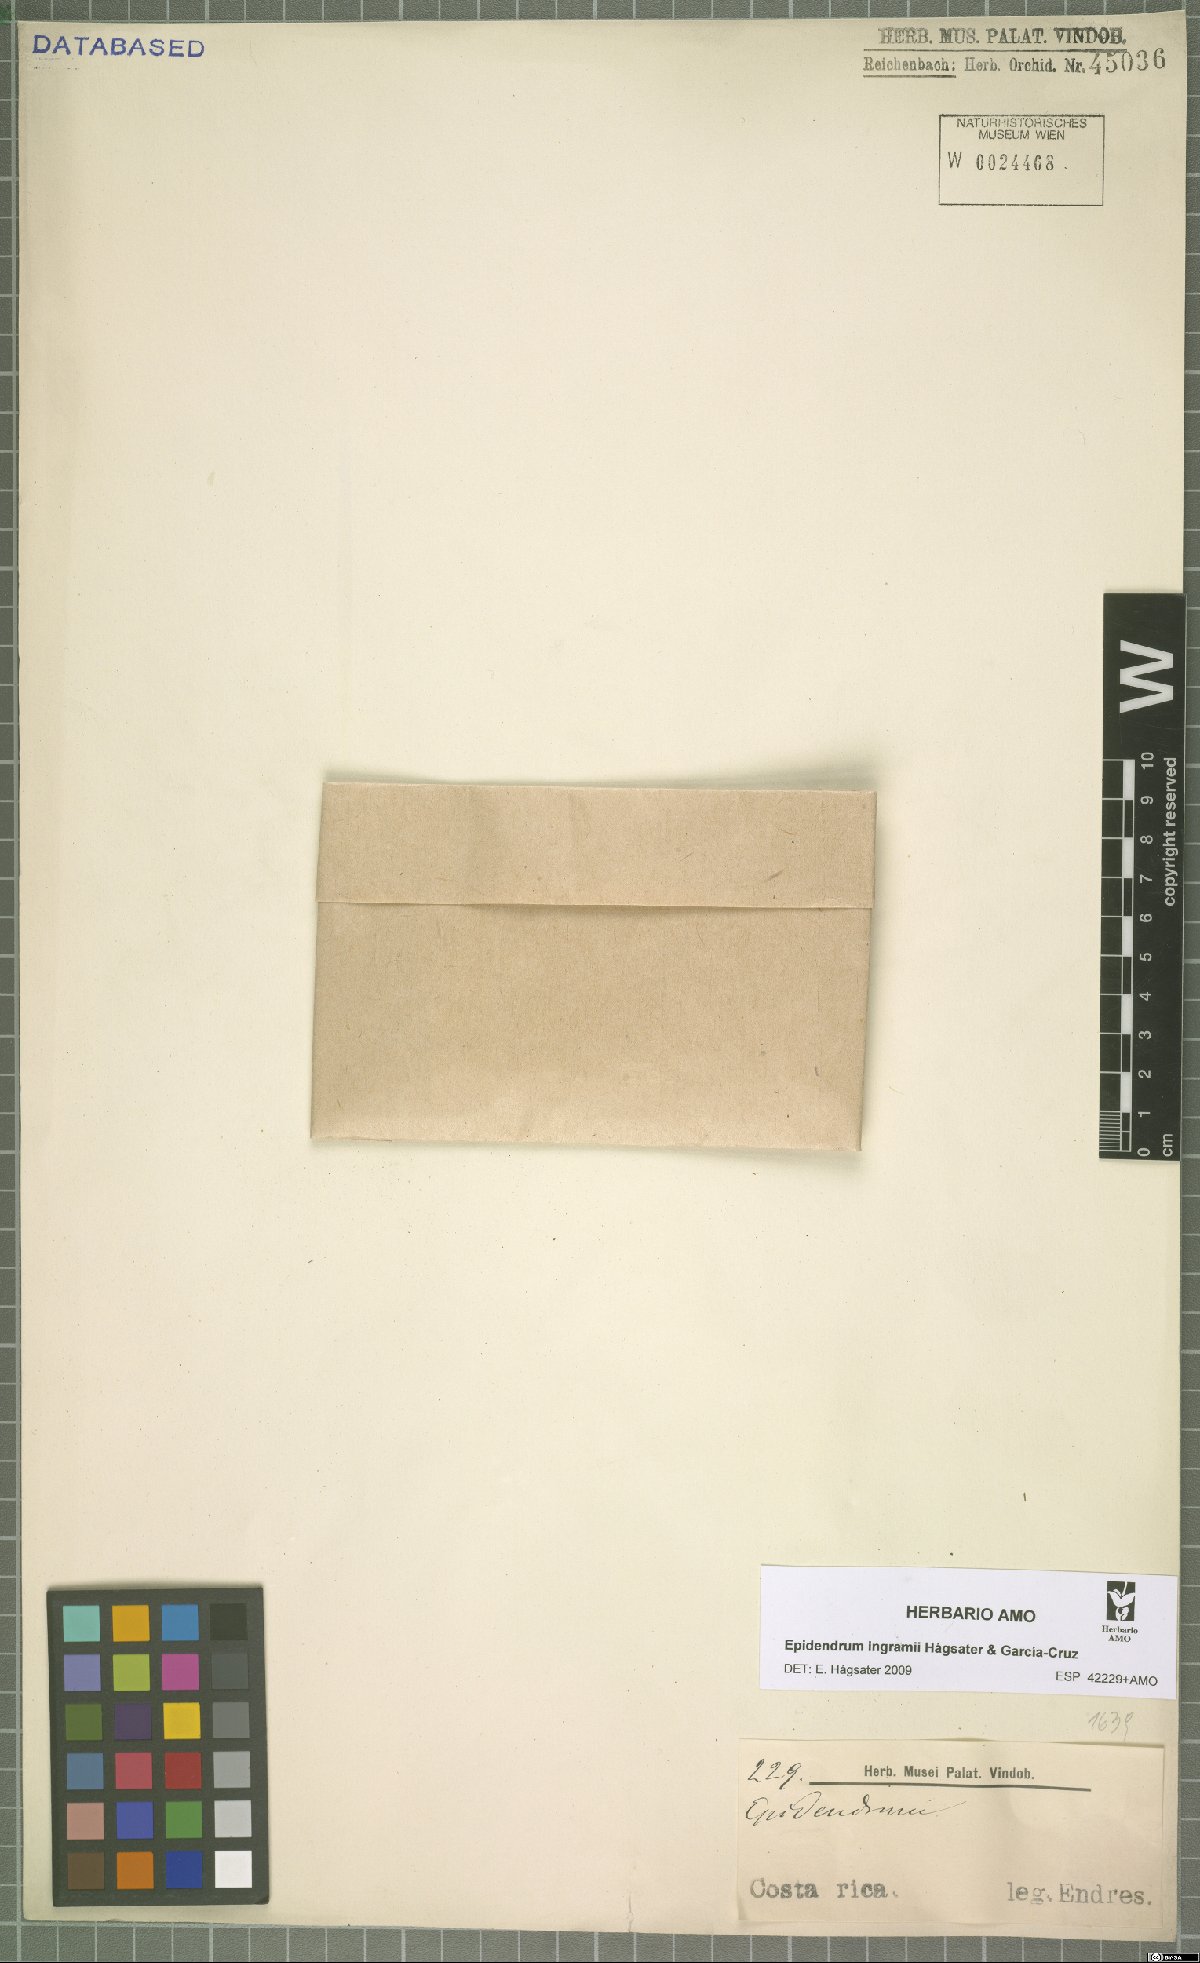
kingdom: Plantae
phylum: Tracheophyta
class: Liliopsida
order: Asparagales
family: Orchidaceae
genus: Epidendrum
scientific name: Epidendrum ingramii
